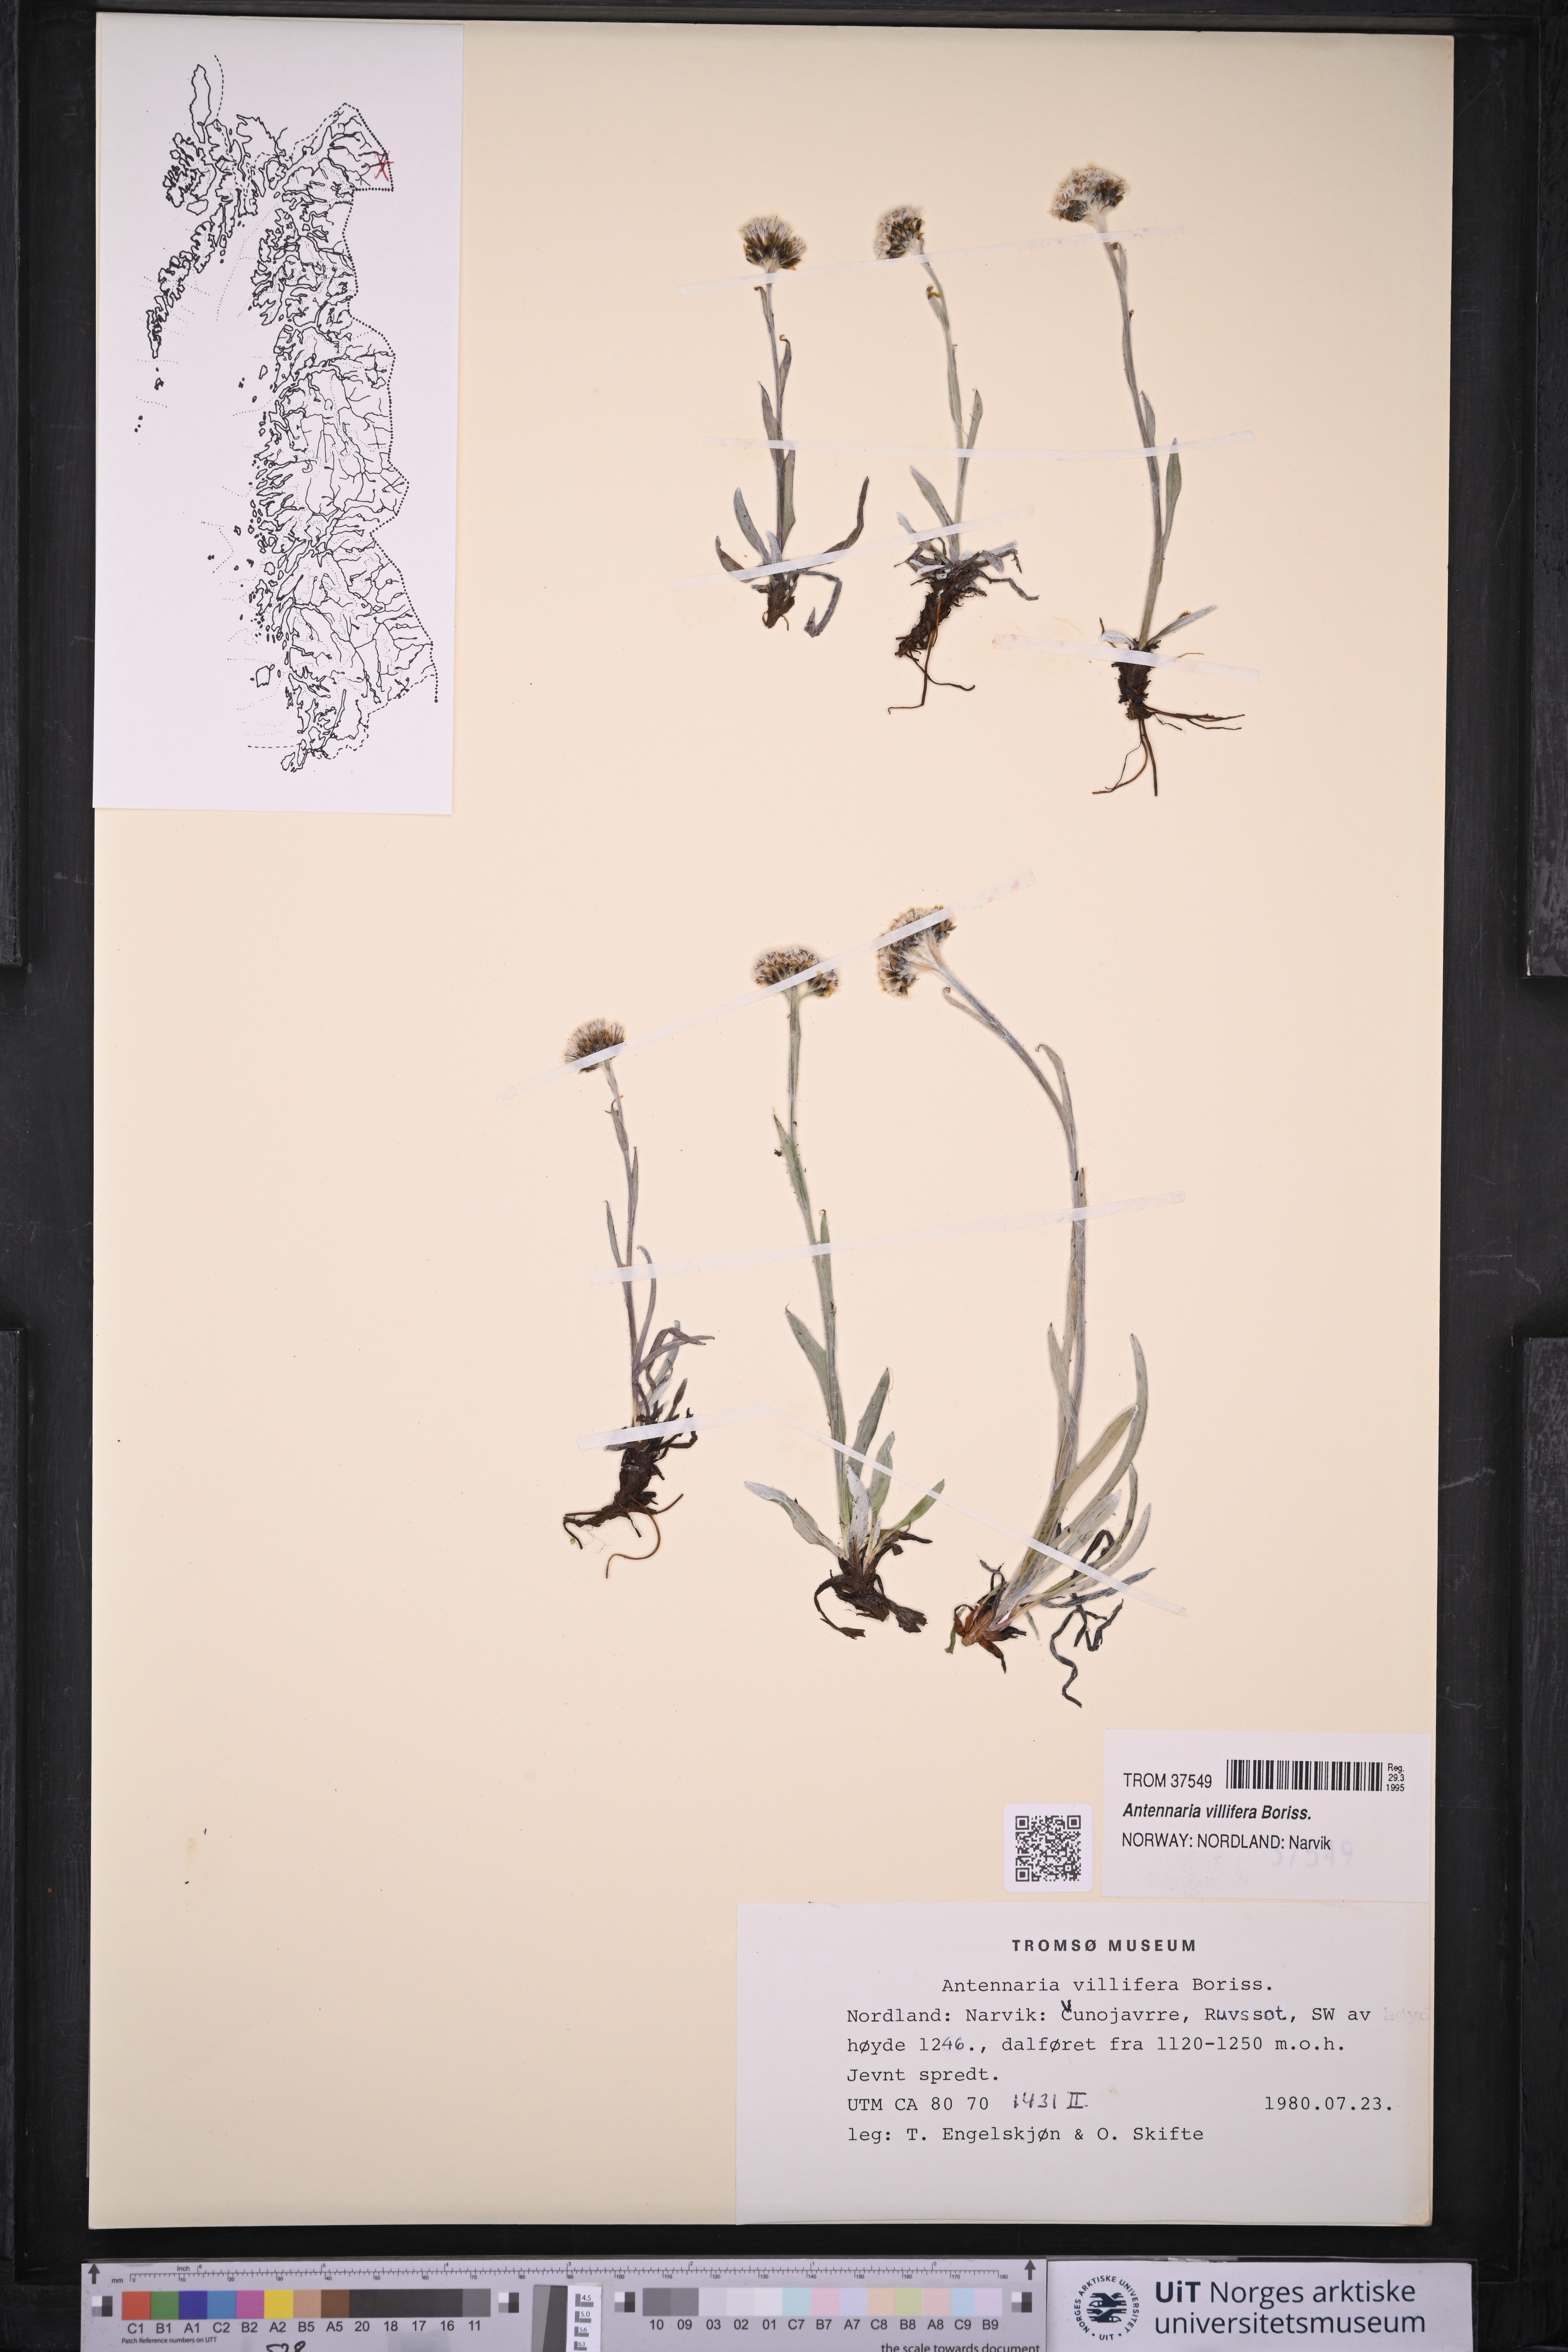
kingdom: Plantae
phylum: Tracheophyta
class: Magnoliopsida
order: Asterales
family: Asteraceae
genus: Antennaria
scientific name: Antennaria lanata
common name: Woolly pussytoes
